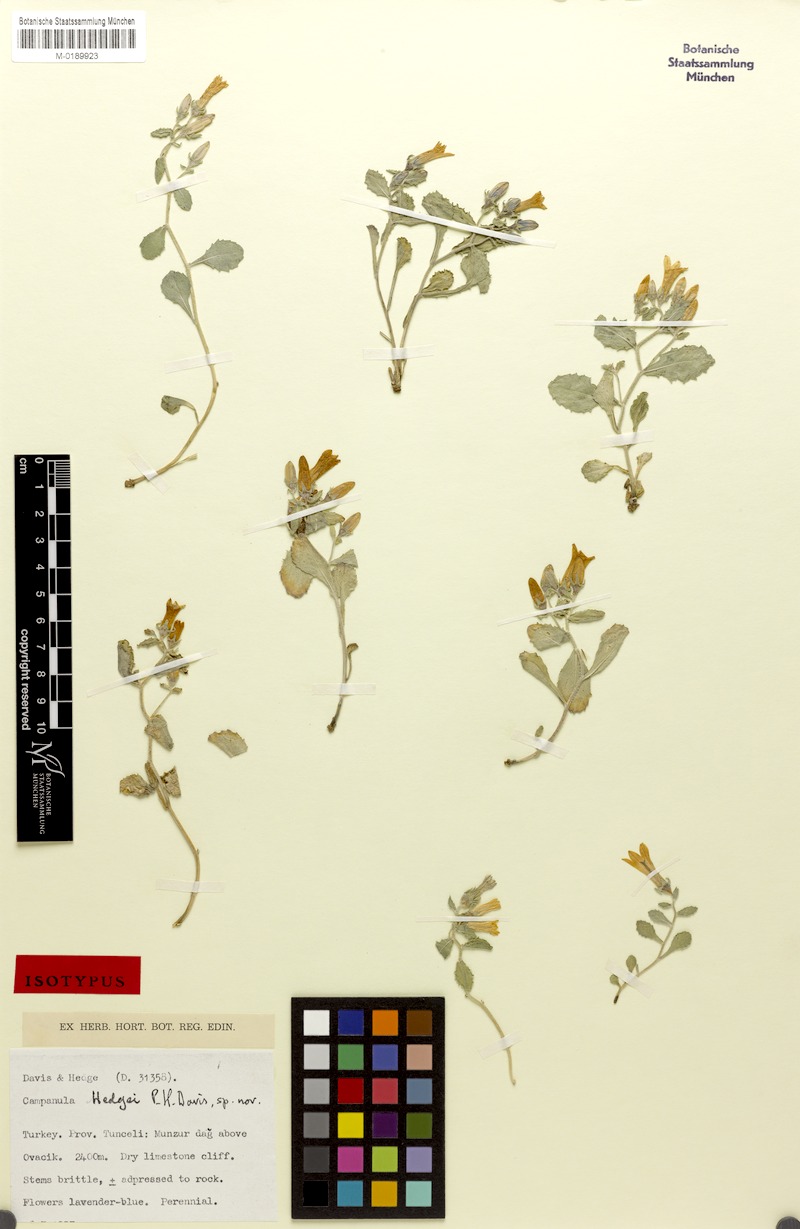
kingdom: Plantae
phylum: Tracheophyta
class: Magnoliopsida
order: Asterales
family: Campanulaceae
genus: Campanula
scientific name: Campanula hedgei
